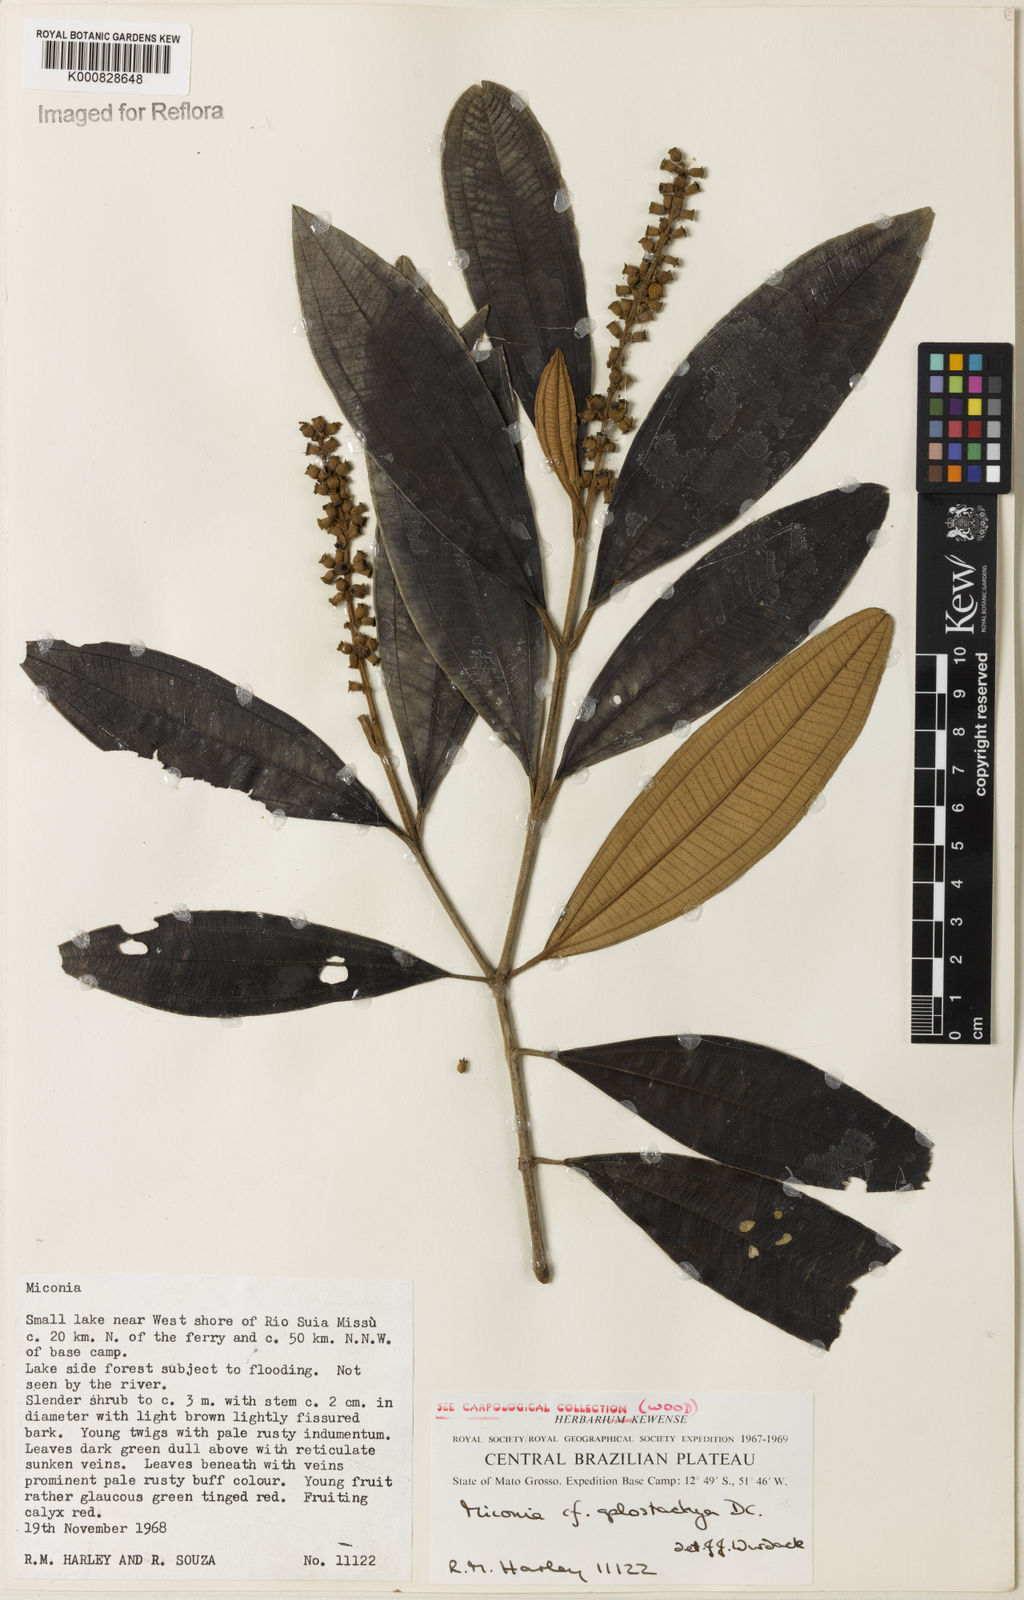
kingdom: Plantae
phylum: Tracheophyta
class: Magnoliopsida
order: Myrtales
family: Melastomataceae
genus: Miconia
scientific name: Miconia aplostachya
